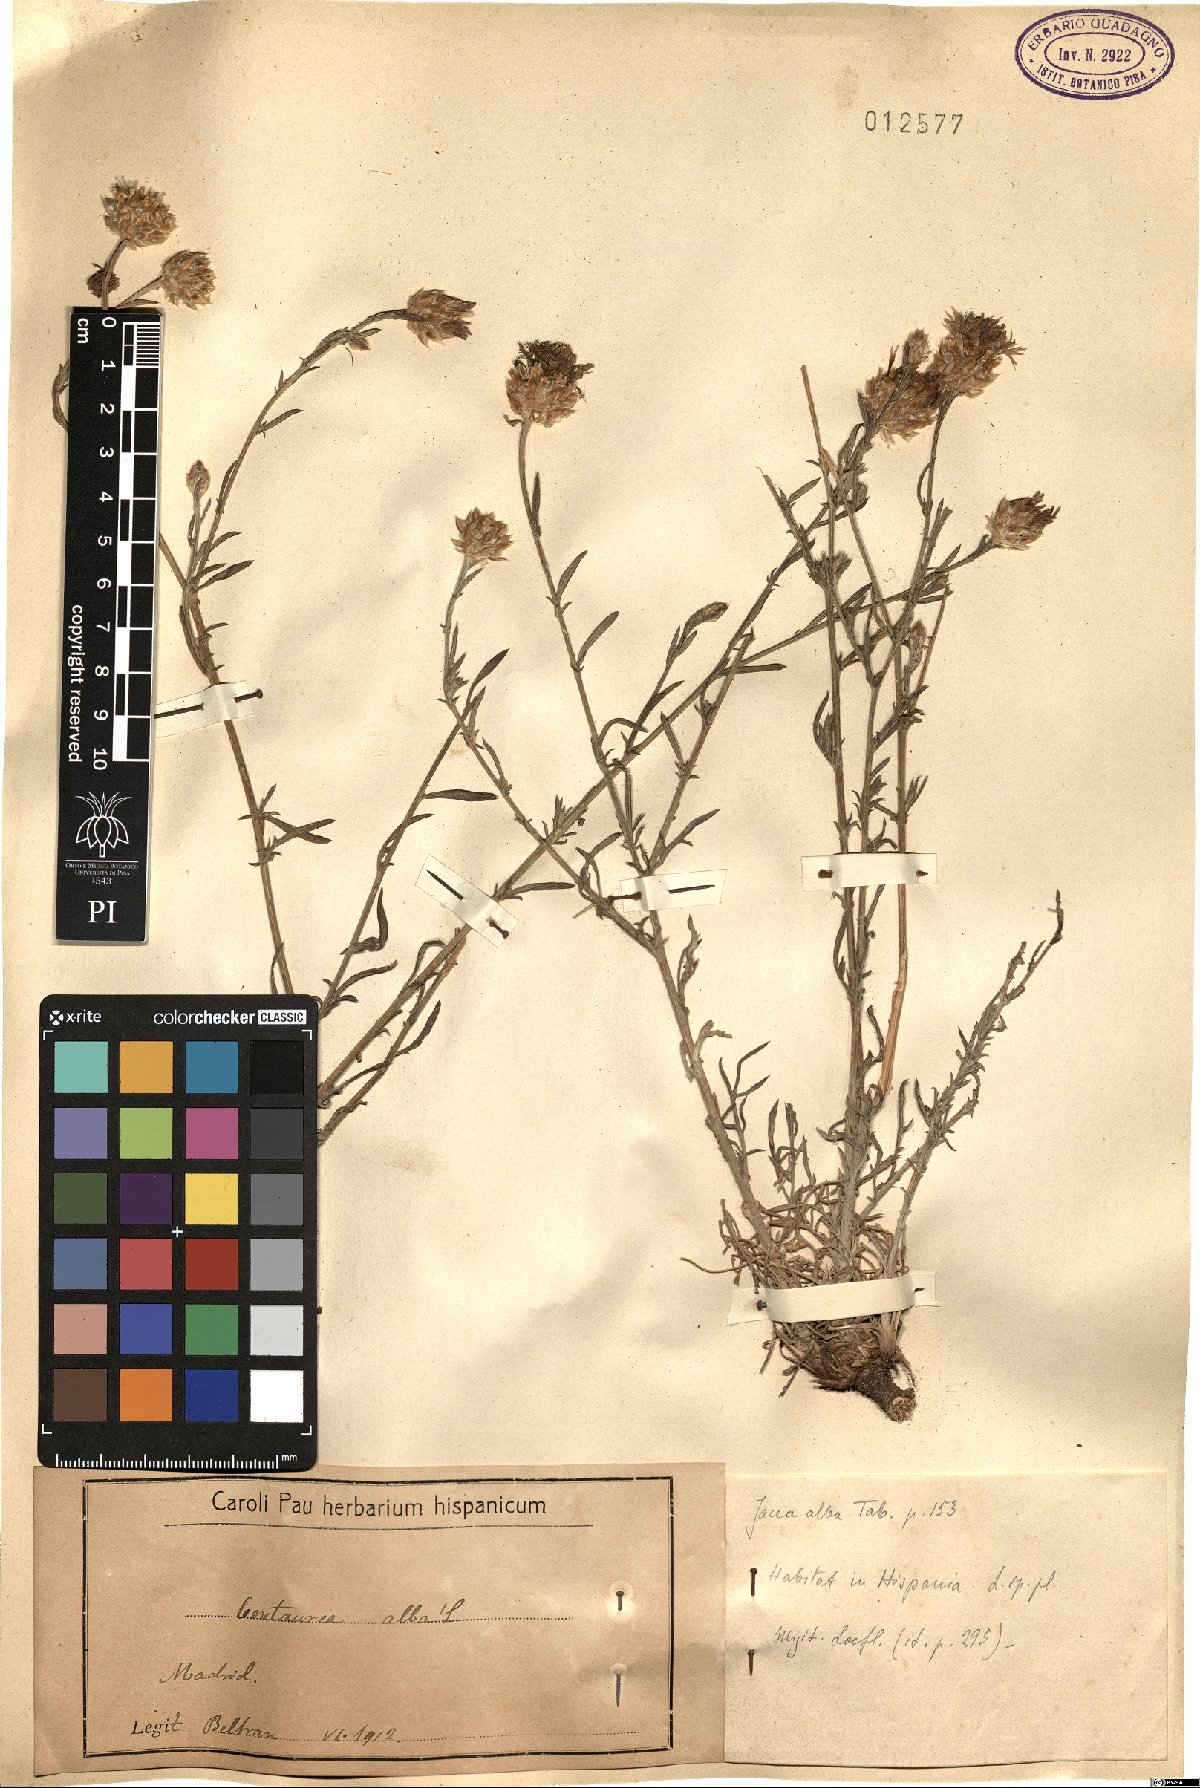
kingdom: Plantae
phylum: Tracheophyta
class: Magnoliopsida
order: Asterales
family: Asteraceae
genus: Centaurea
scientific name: Centaurea alba
